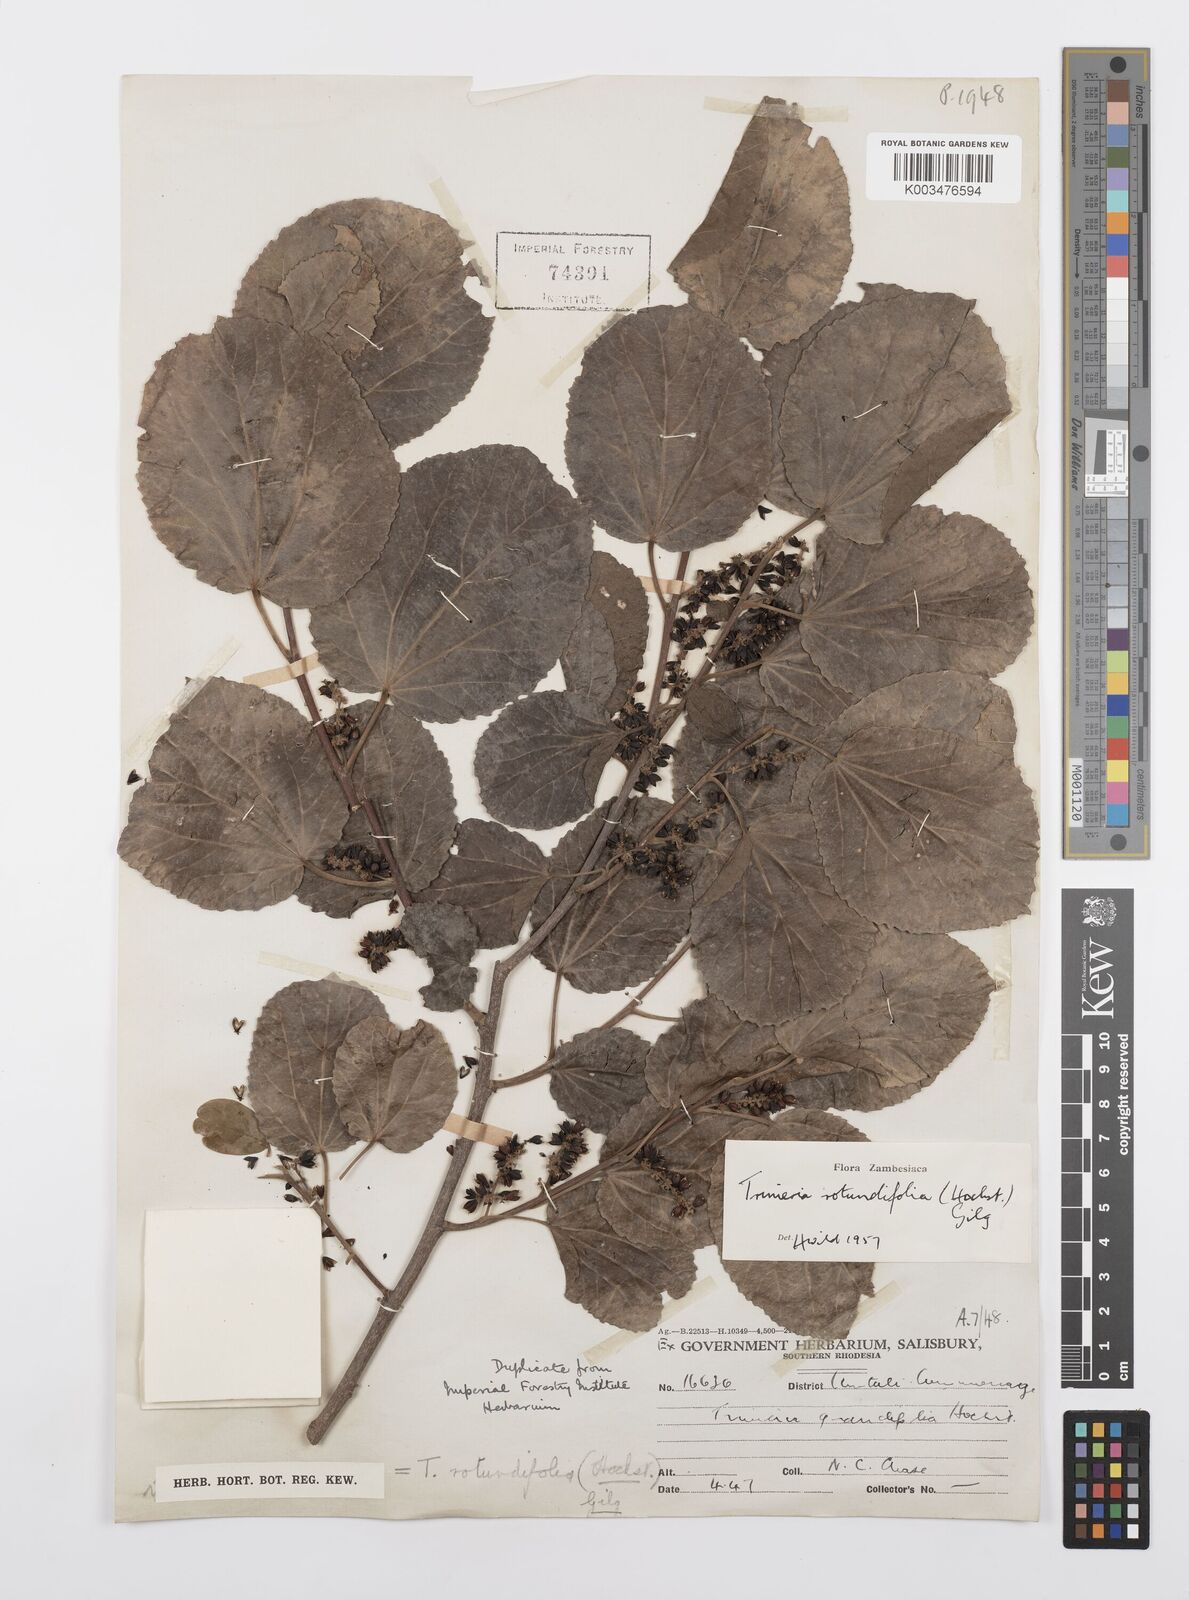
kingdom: Plantae
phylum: Tracheophyta
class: Magnoliopsida
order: Malpighiales
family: Salicaceae
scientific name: Salicaceae
